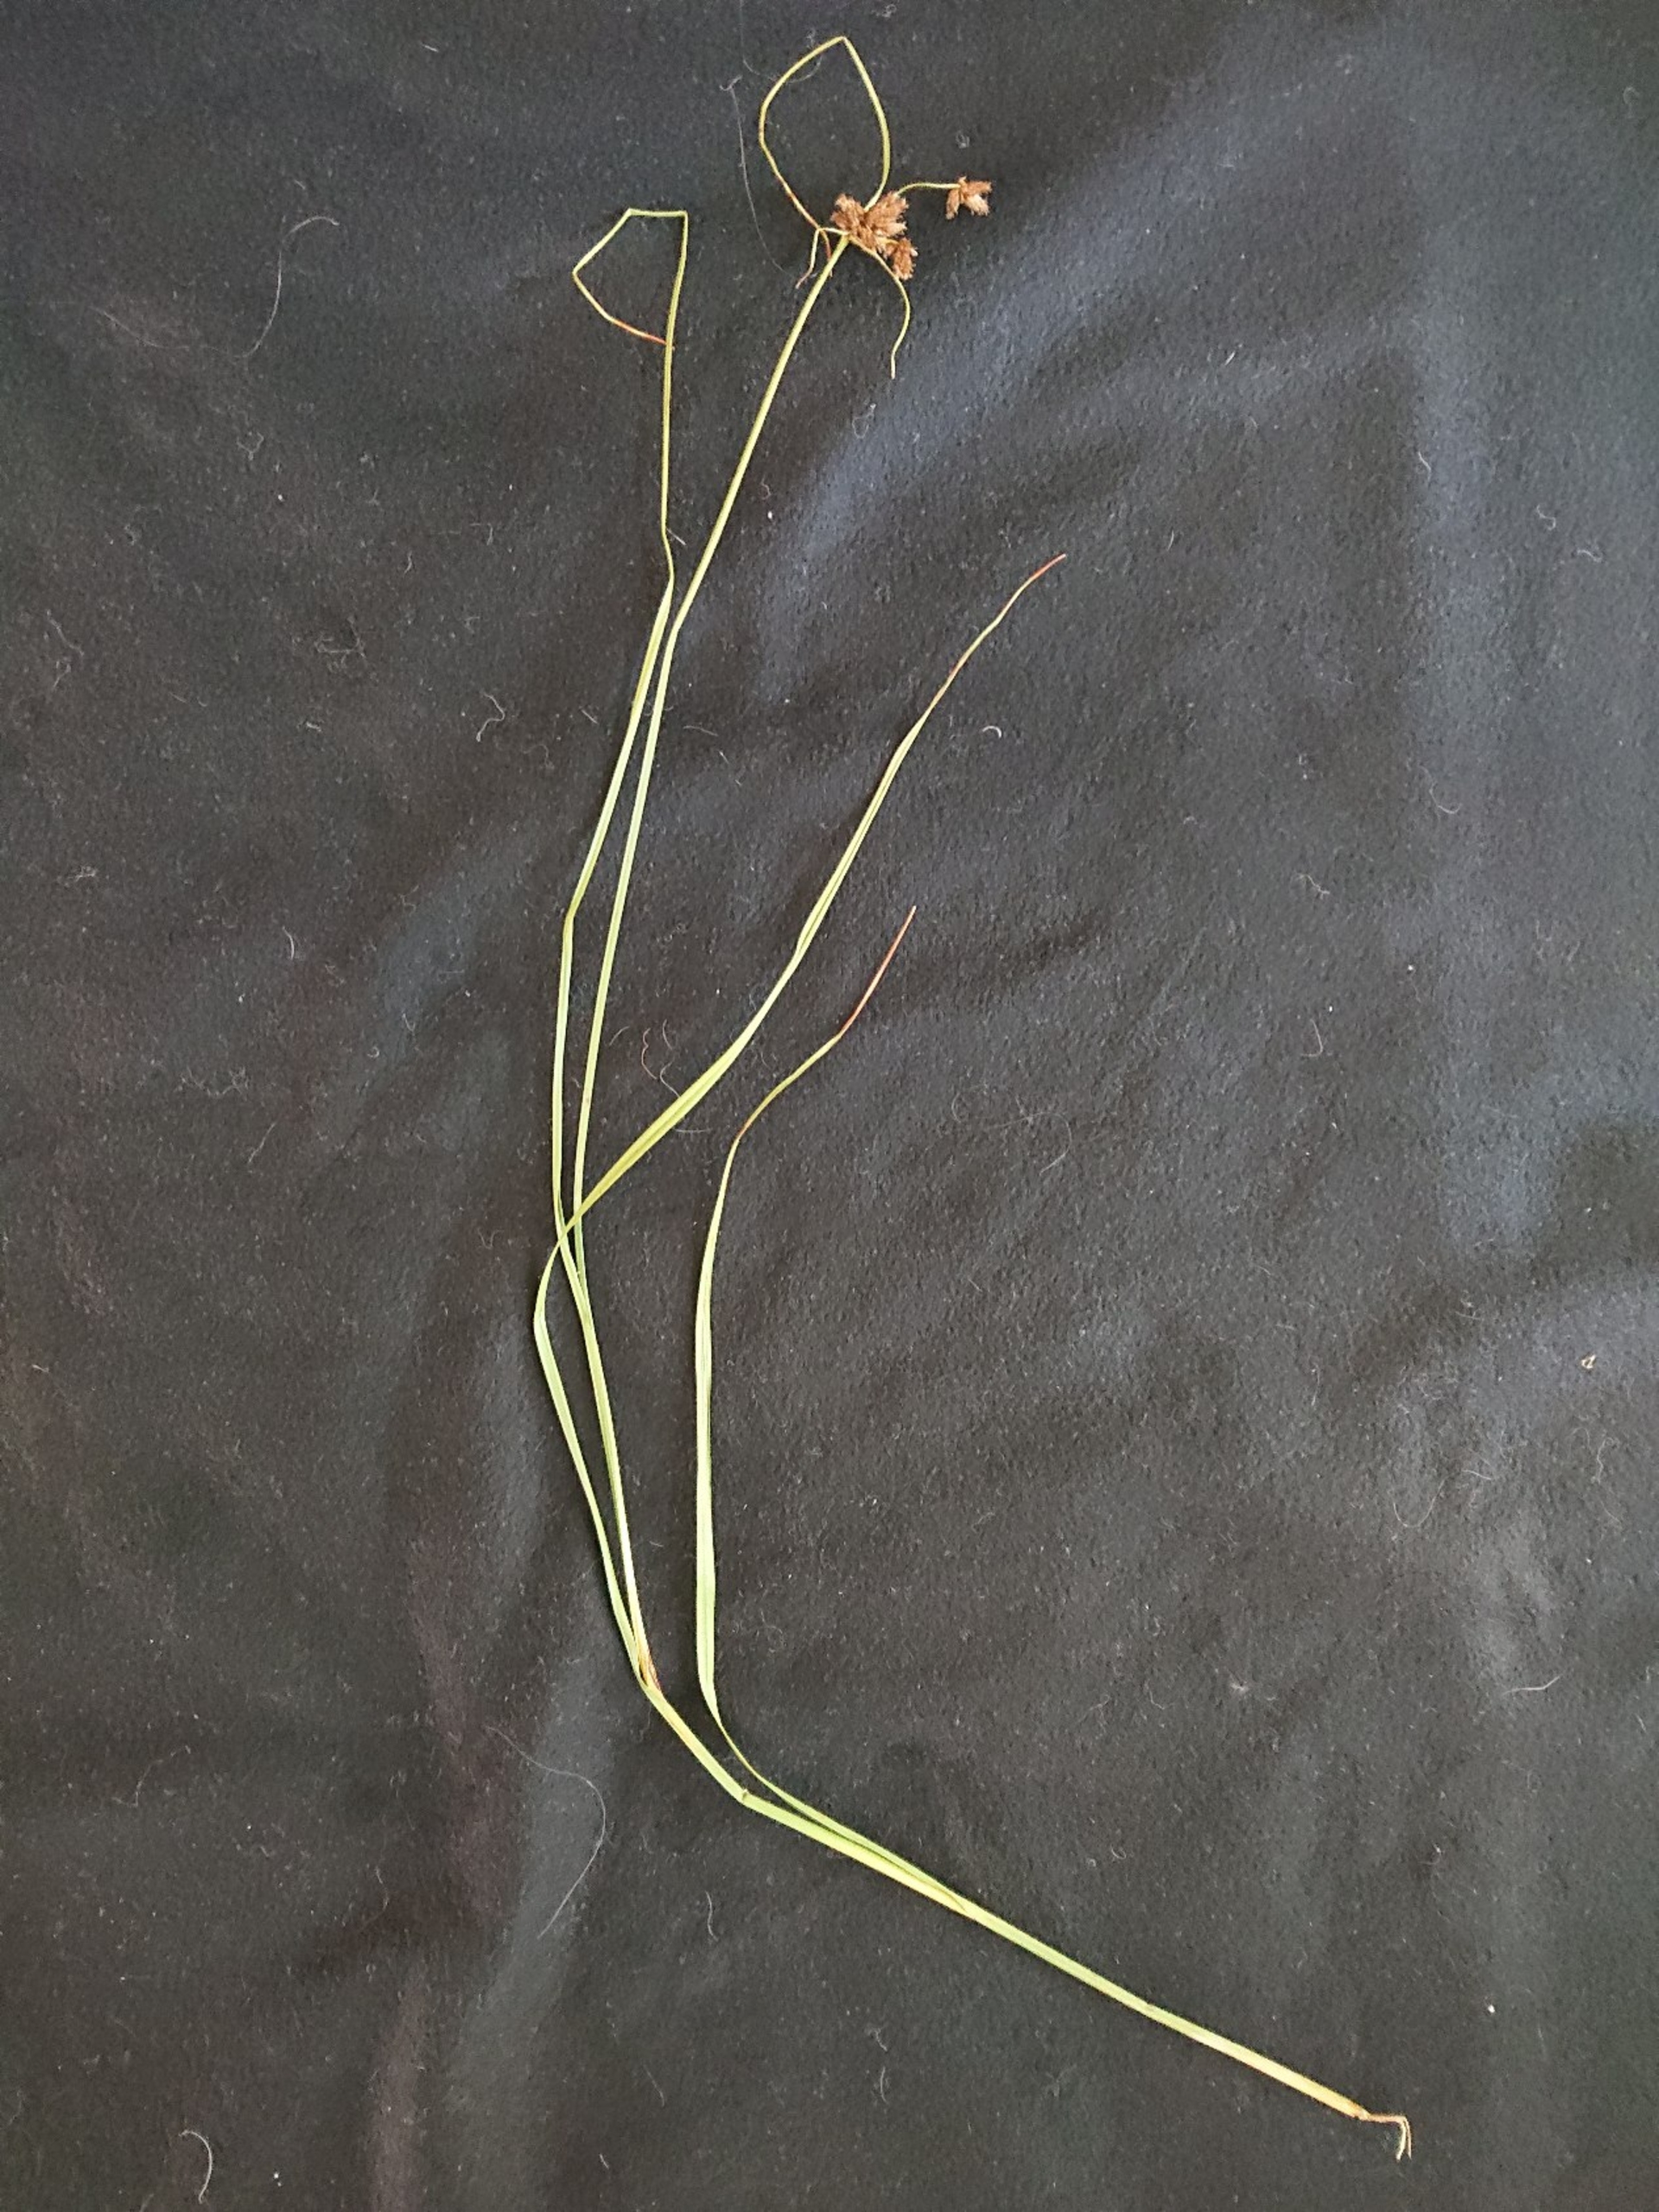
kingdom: Plantae
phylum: Tracheophyta
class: Liliopsida
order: Poales
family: Cyperaceae
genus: Bolboschoenus
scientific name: Bolboschoenus maritimus
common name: Strand-kogleaks
